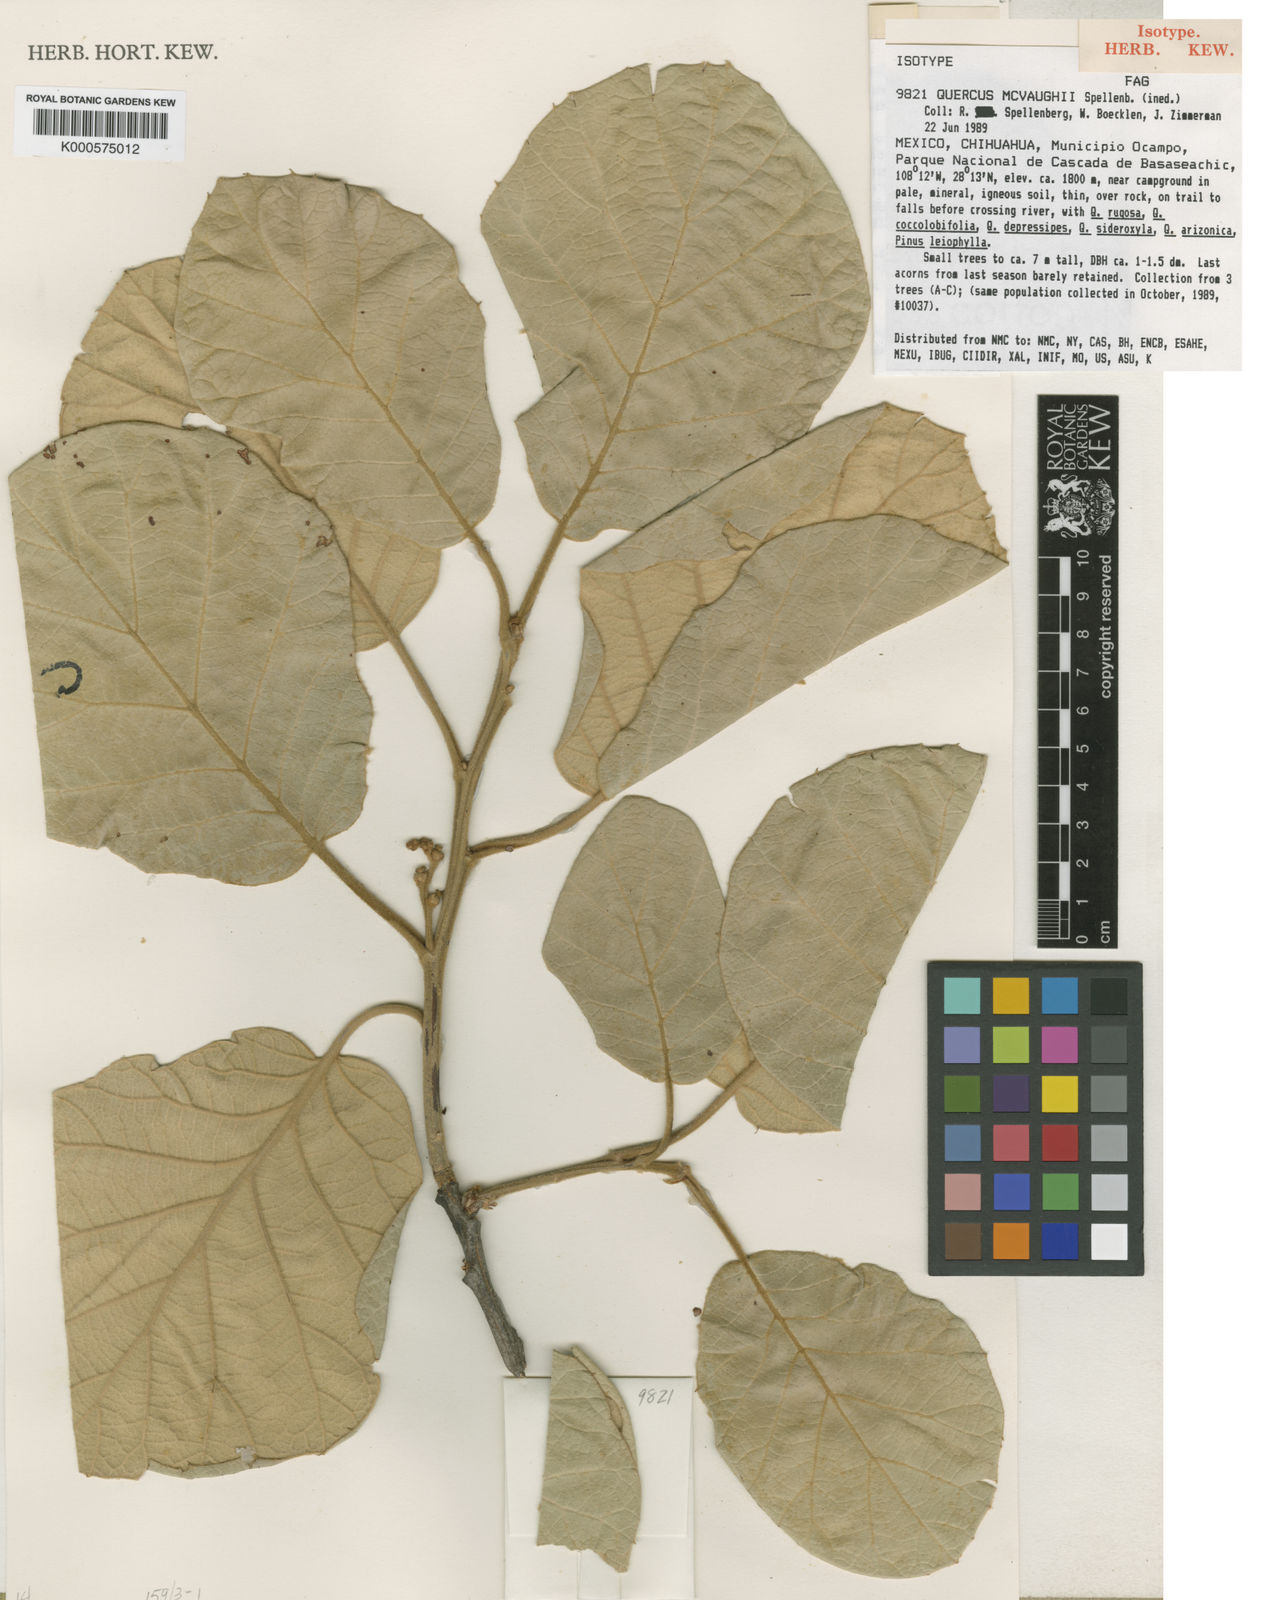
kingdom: Plantae
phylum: Tracheophyta
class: Magnoliopsida
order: Fagales
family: Fagaceae
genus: Quercus
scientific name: Quercus mcvaughii
